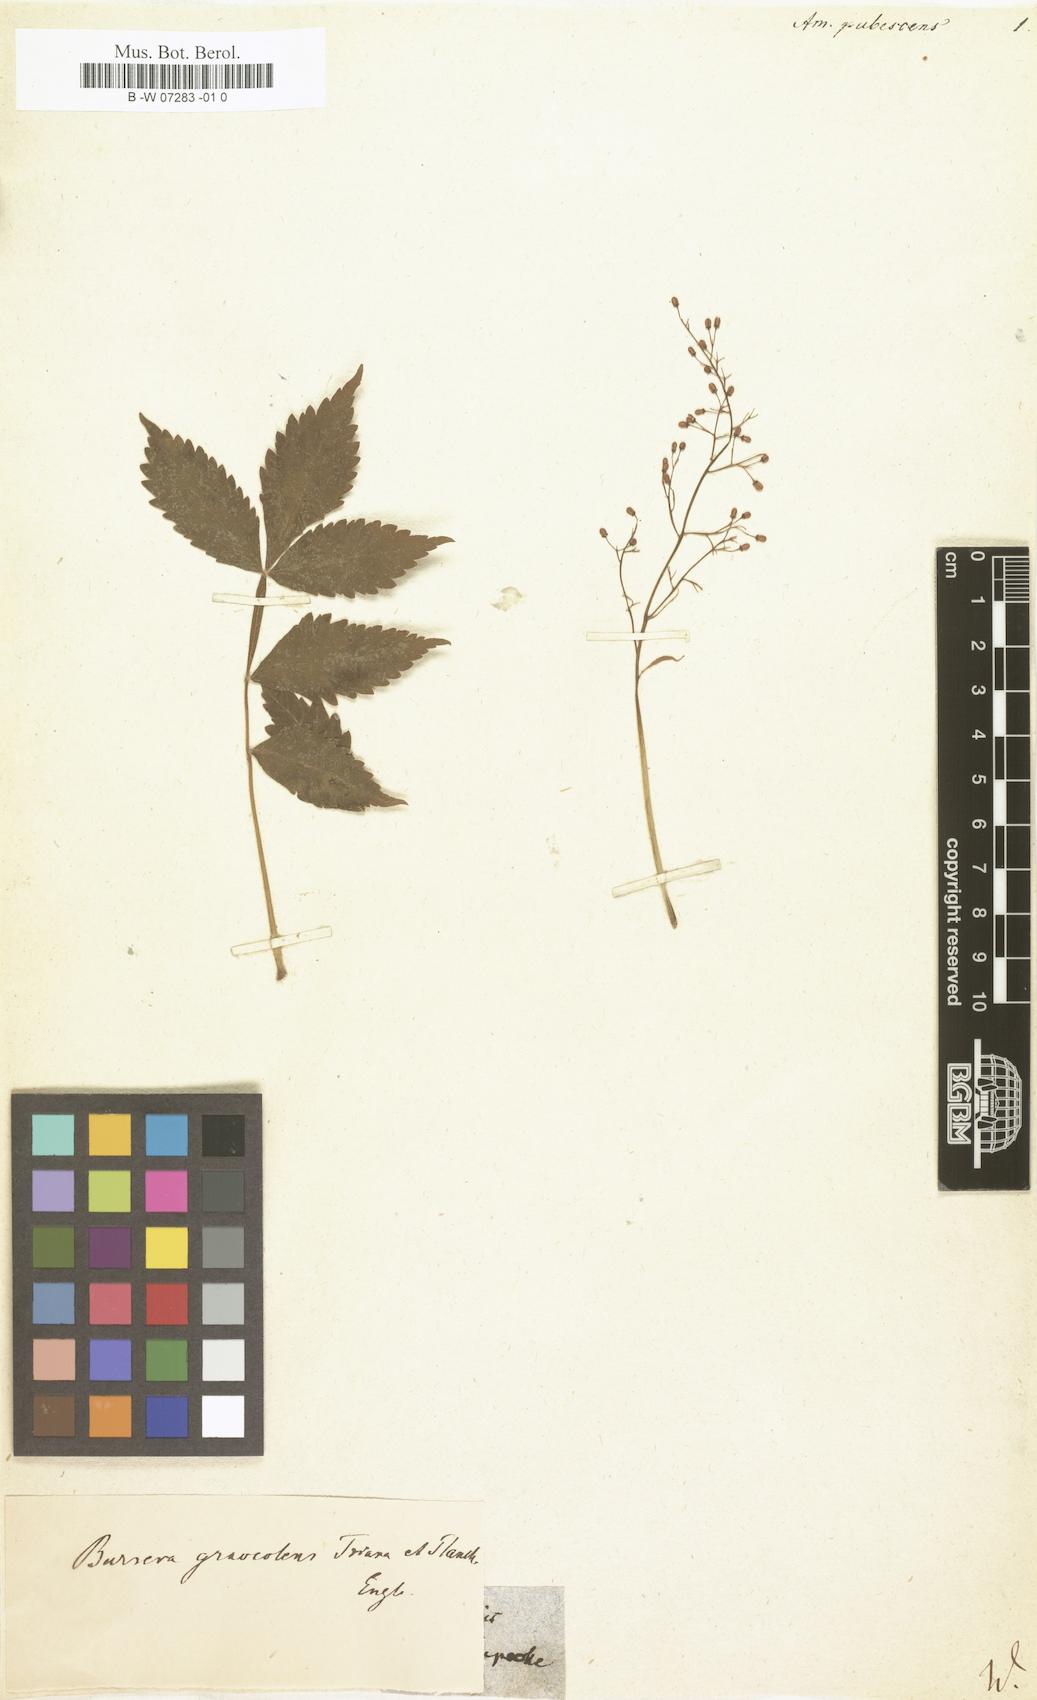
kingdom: Plantae
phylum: Tracheophyta
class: Magnoliopsida
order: Sapindales
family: Burseraceae
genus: Bursera
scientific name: Bursera graveolens
